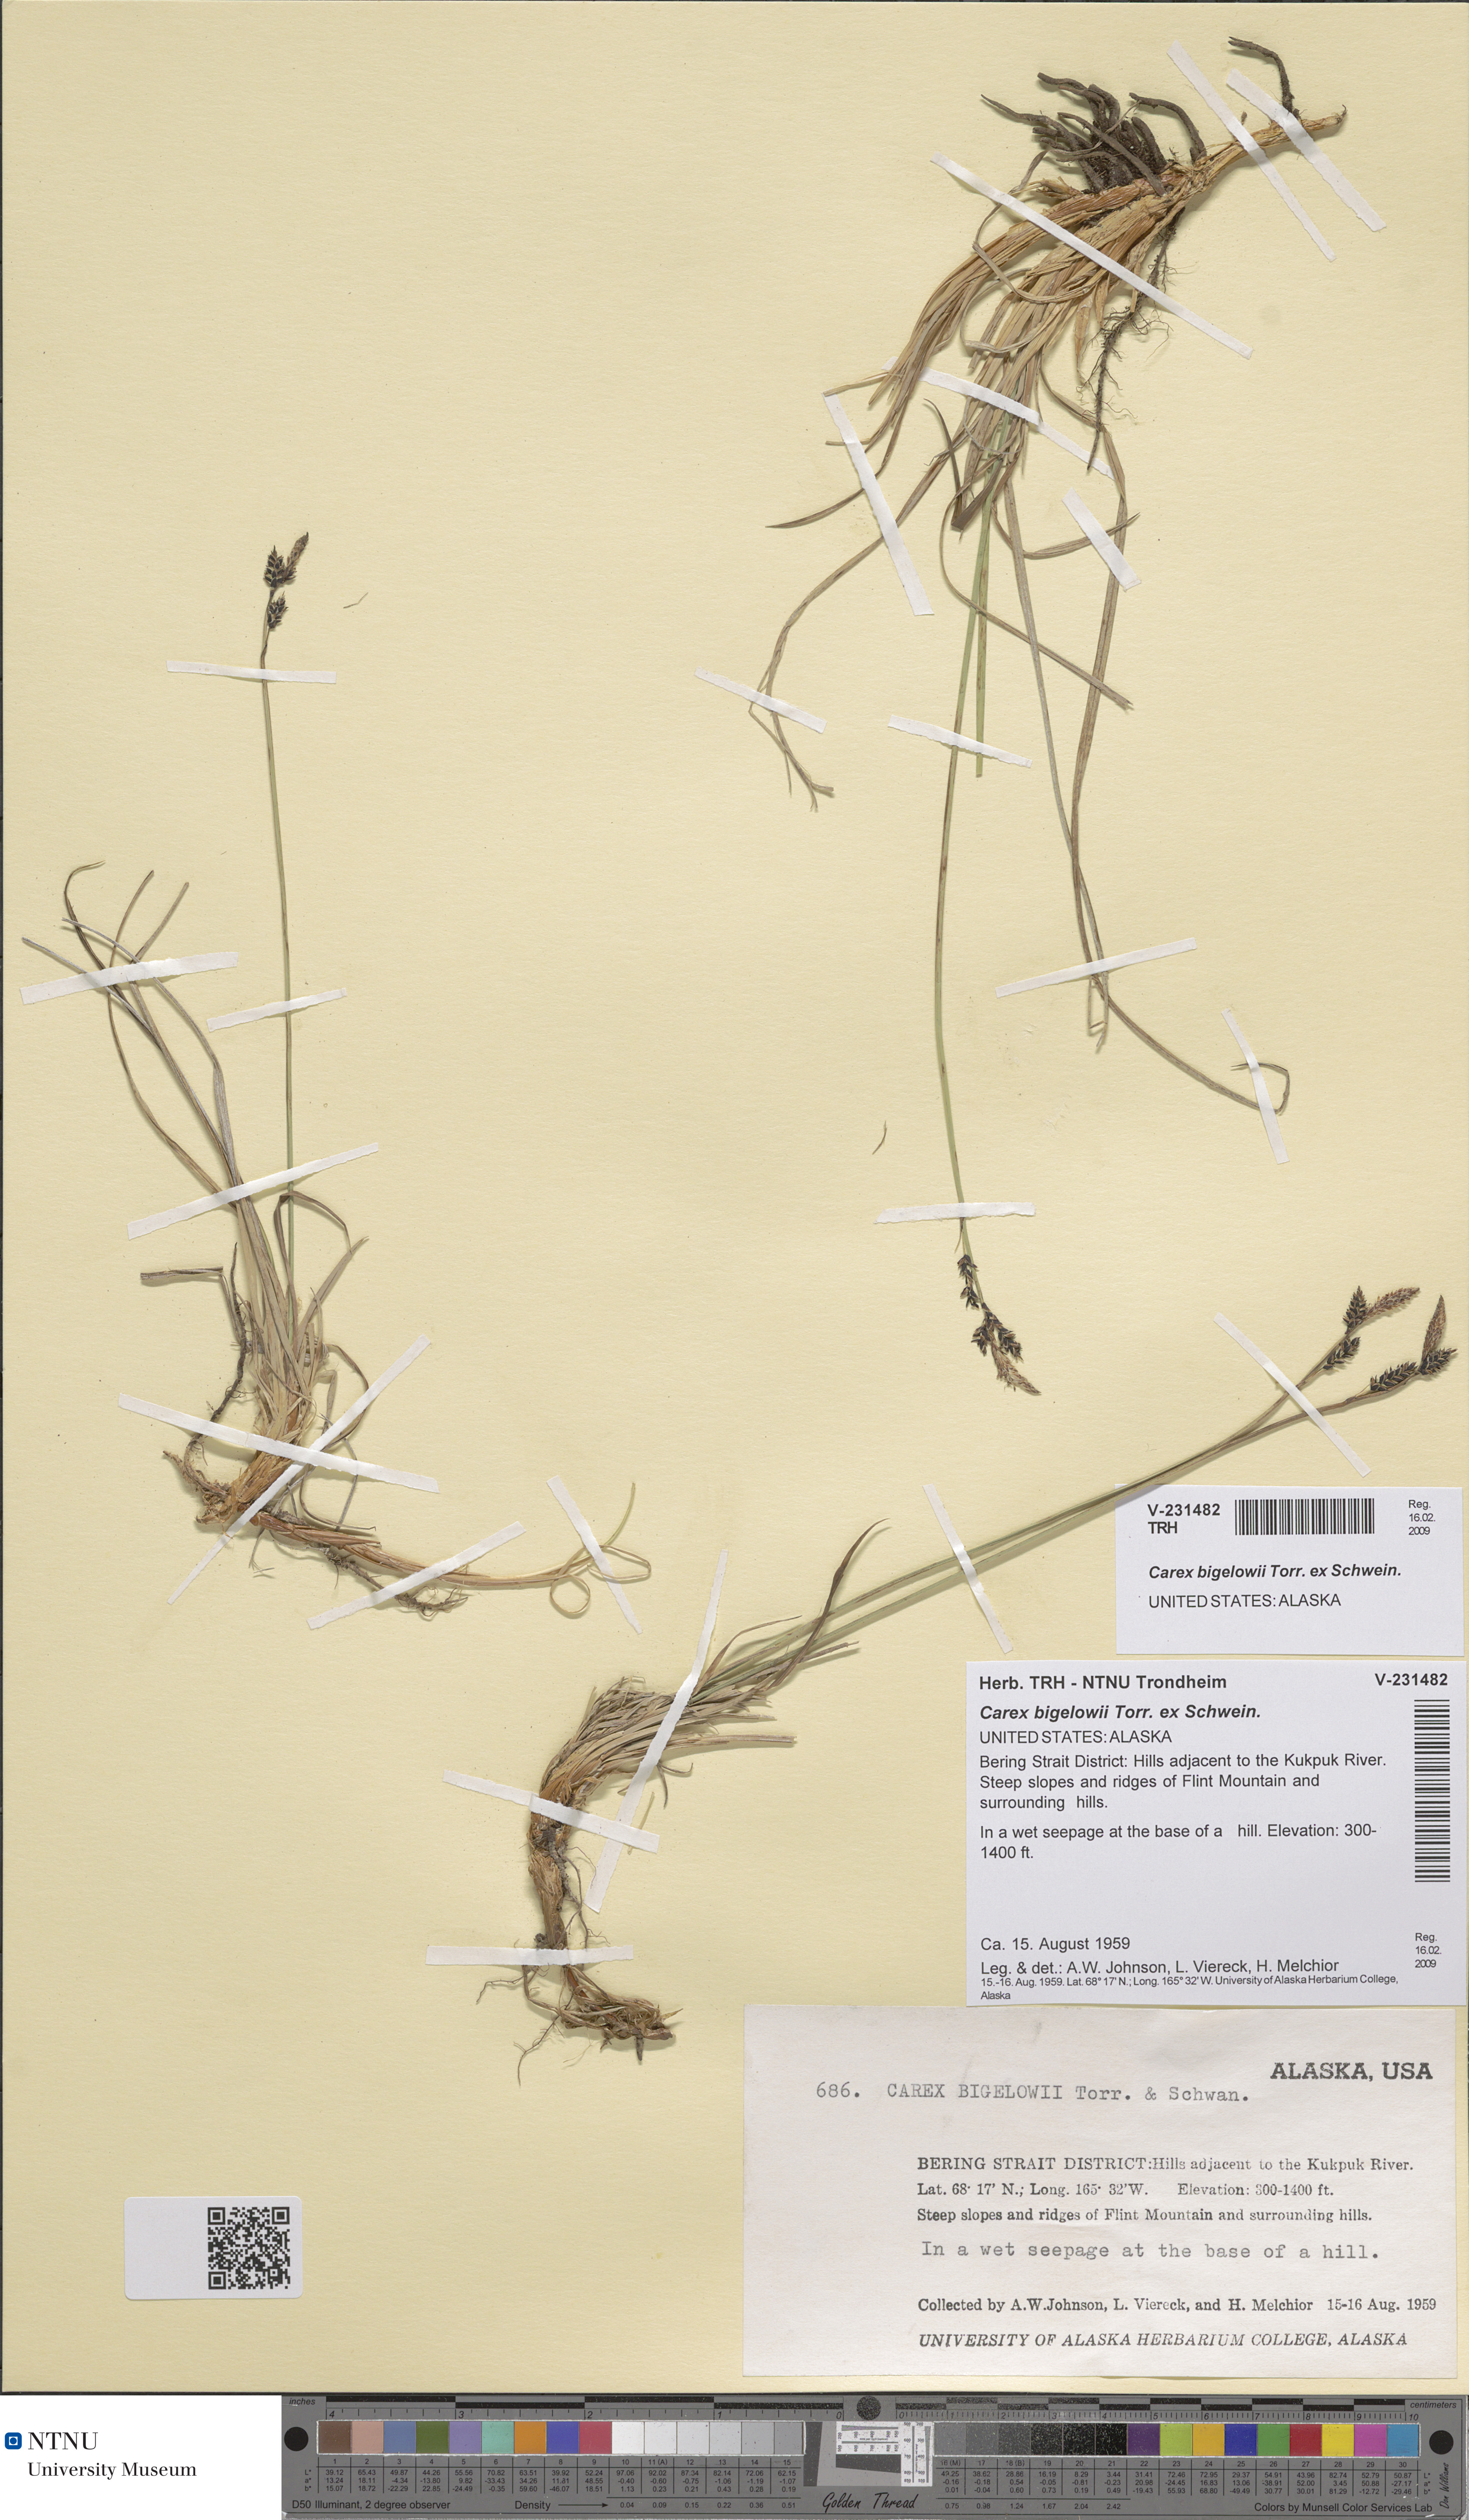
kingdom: Plantae
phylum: Tracheophyta
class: Liliopsida
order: Poales
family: Cyperaceae
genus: Carex
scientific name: Carex bigelowii
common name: Stiff sedge
